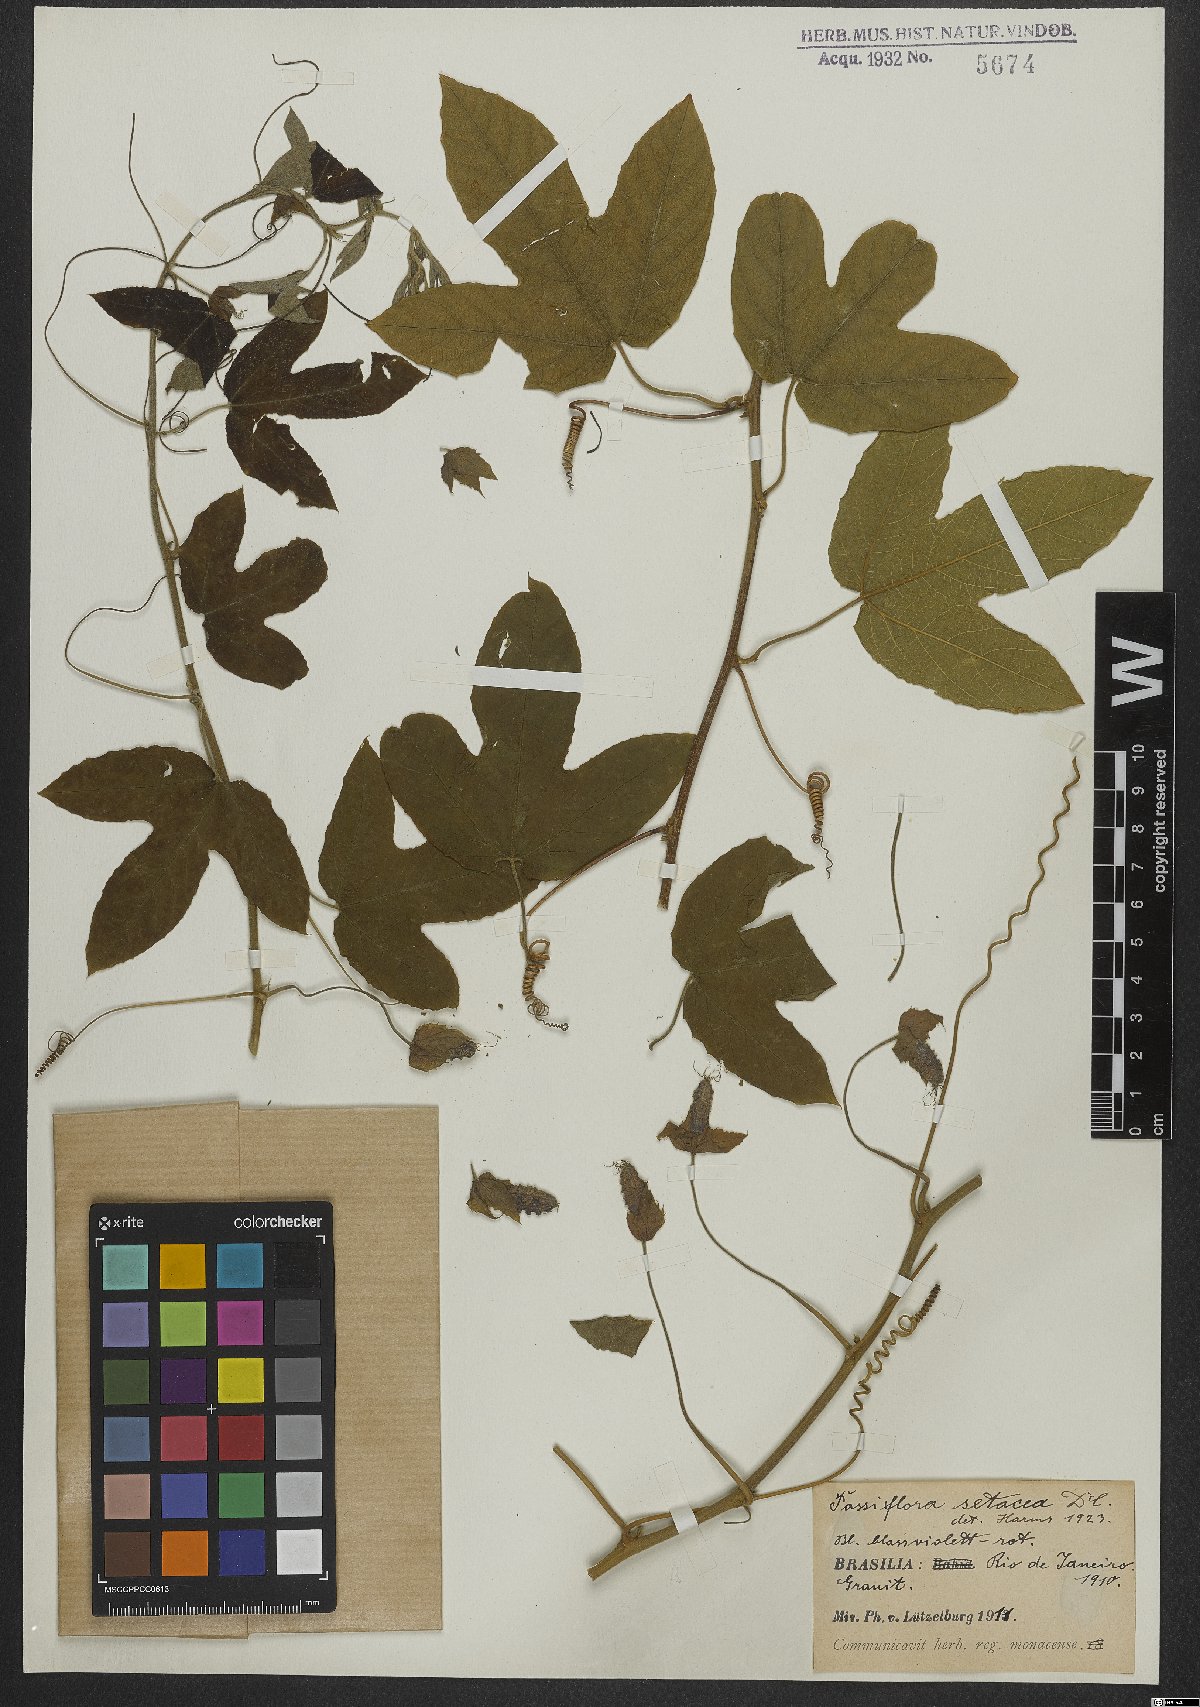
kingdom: Plantae
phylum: Tracheophyta
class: Magnoliopsida
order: Malpighiales
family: Passifloraceae
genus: Passiflora
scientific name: Passiflora setacea
